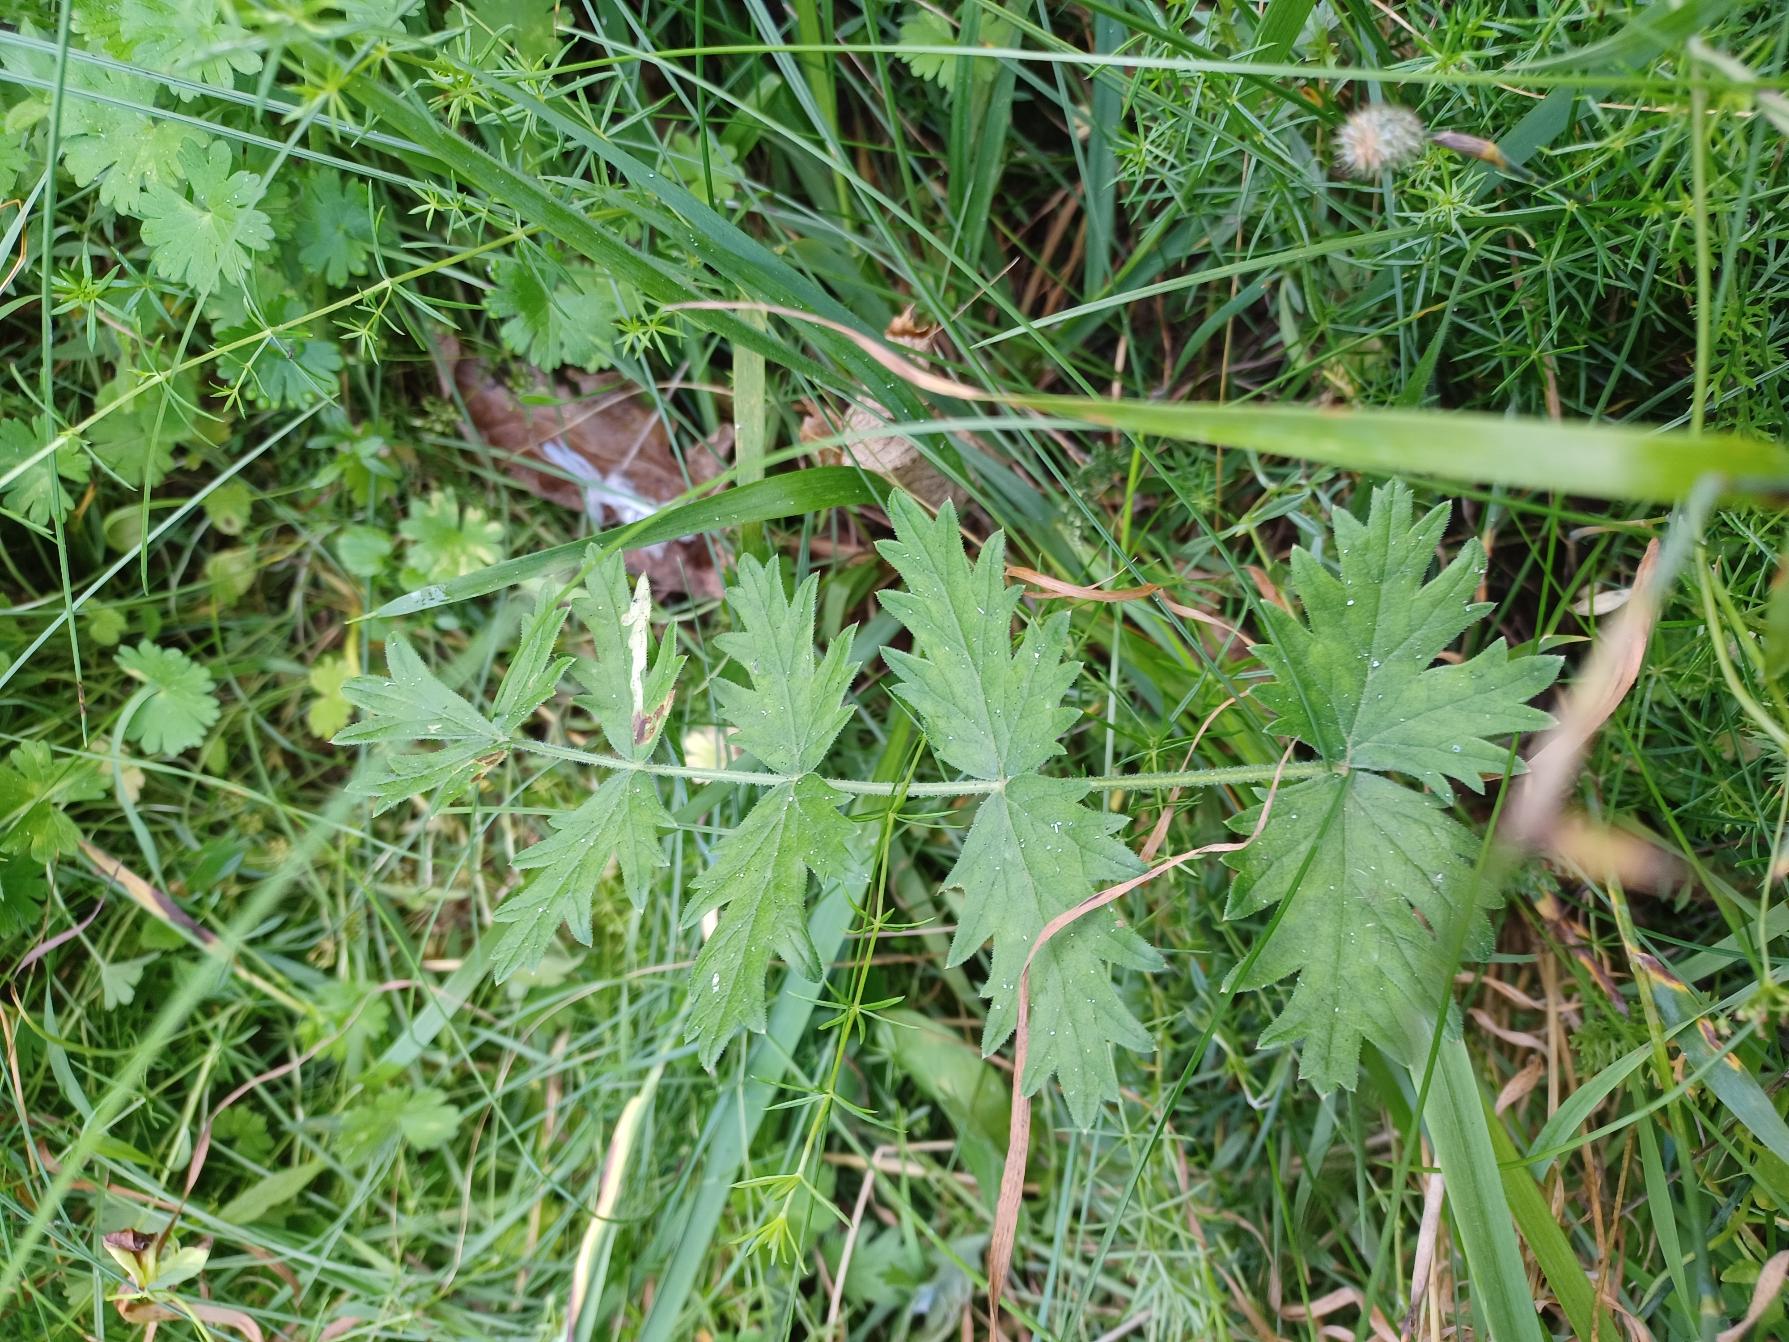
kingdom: Plantae
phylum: Tracheophyta
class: Magnoliopsida
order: Apiales
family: Apiaceae
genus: Pimpinella
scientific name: Pimpinella saxifraga
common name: Almindelig pimpinelle
